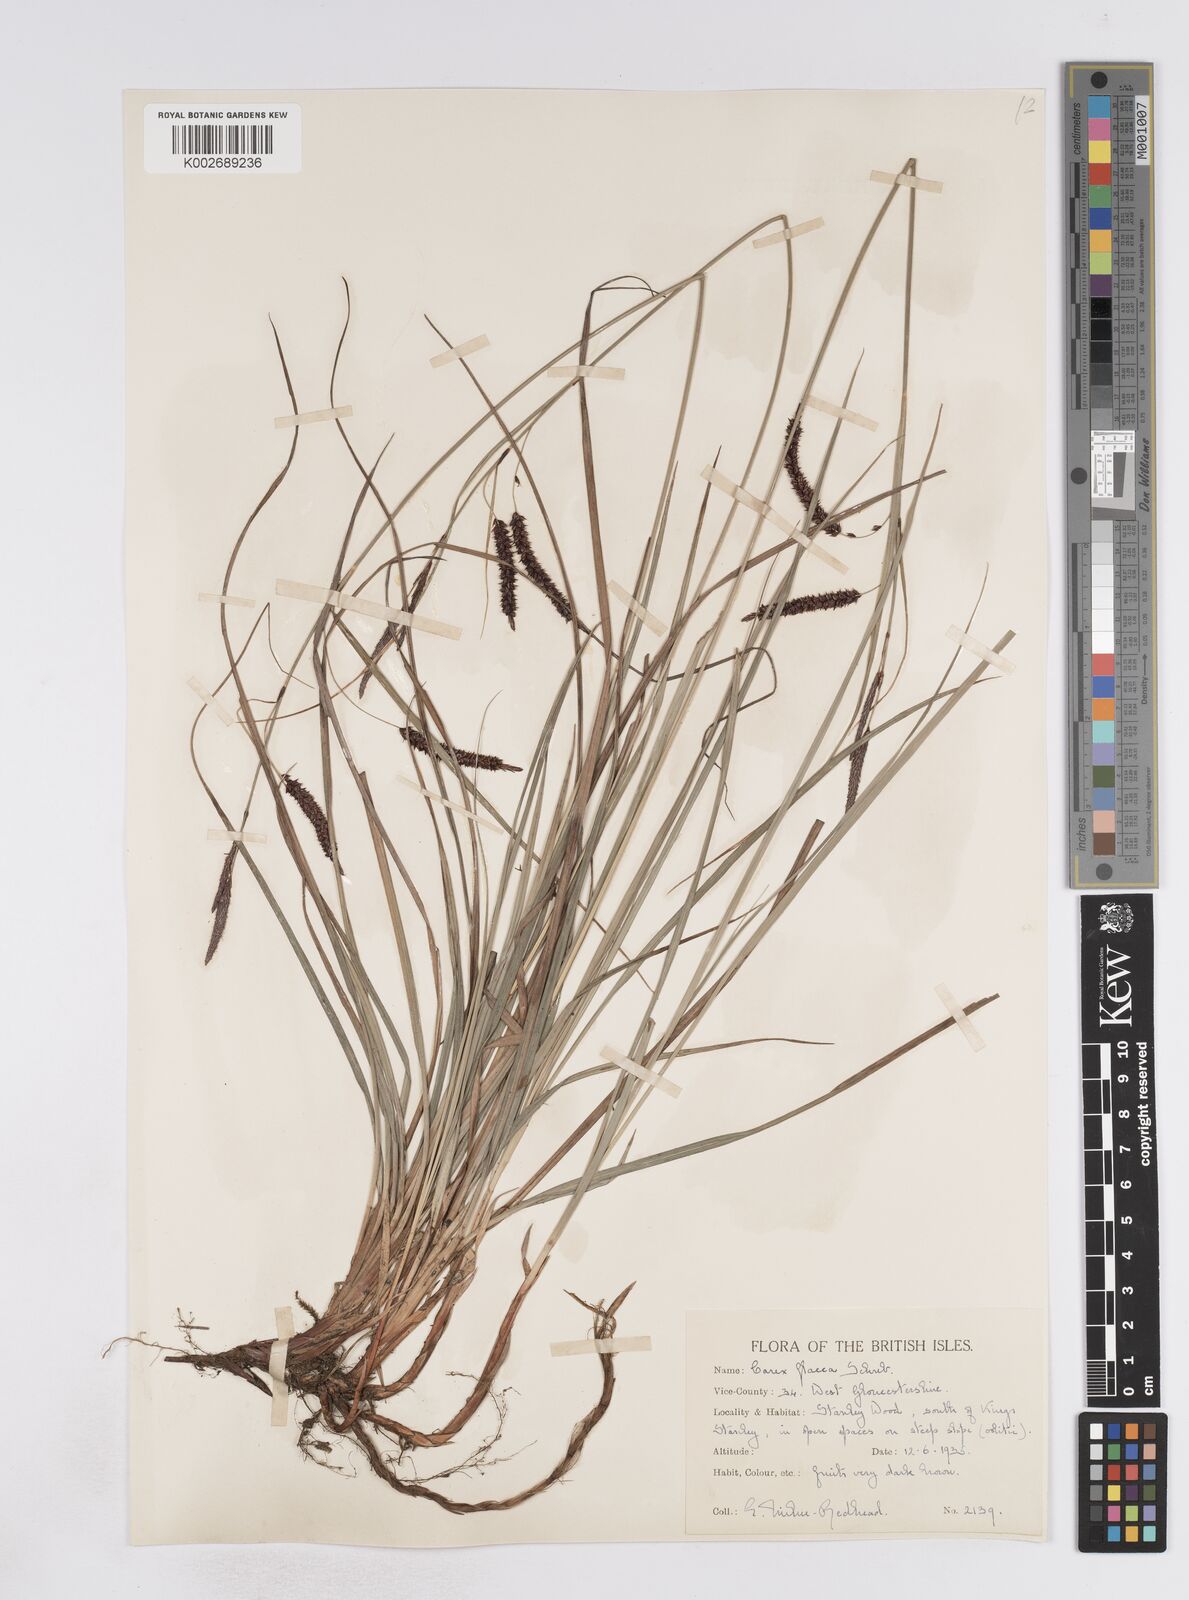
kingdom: Plantae
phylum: Tracheophyta
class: Liliopsida
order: Poales
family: Cyperaceae
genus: Carex
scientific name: Carex flacca
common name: Glaucous sedge
